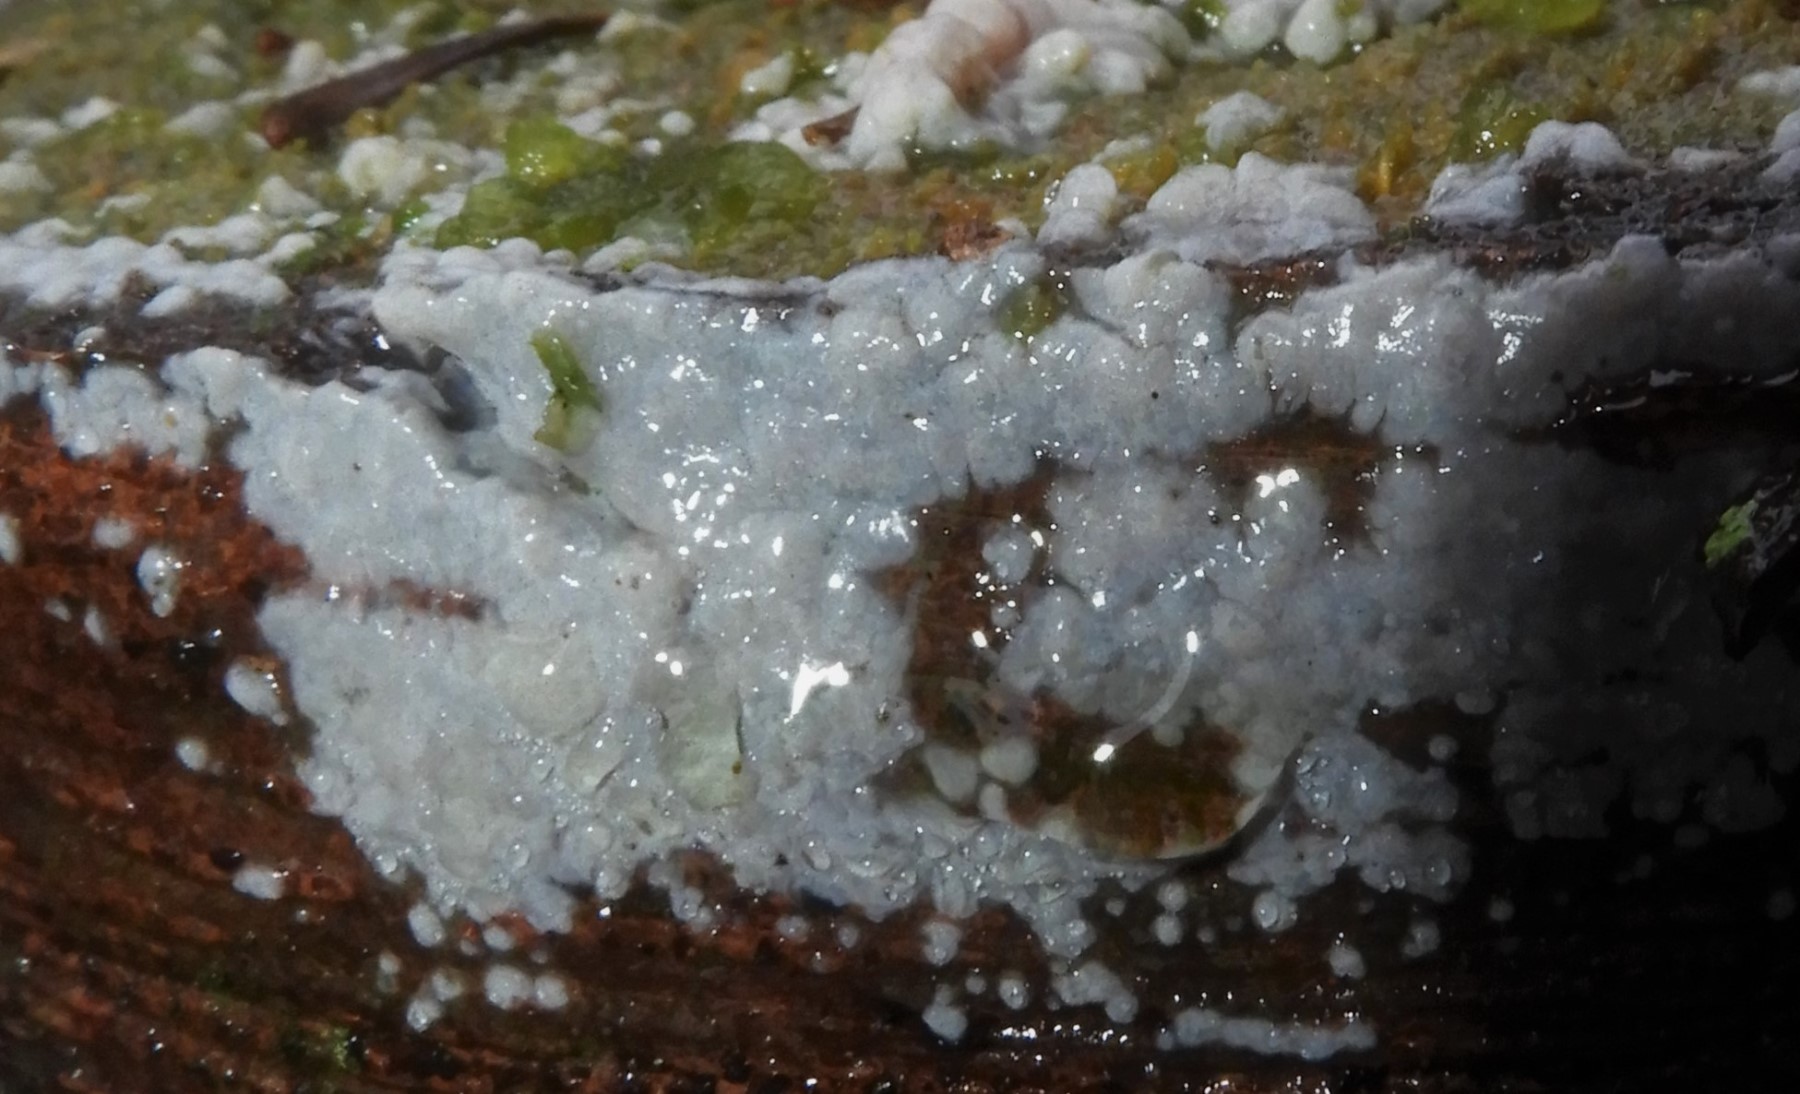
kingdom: Fungi
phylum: Basidiomycota
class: Agaricomycetes
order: Sebacinales
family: Sebacinaceae
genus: Sebacina
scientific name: Sebacina grisea
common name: blågrå bævrehinde
